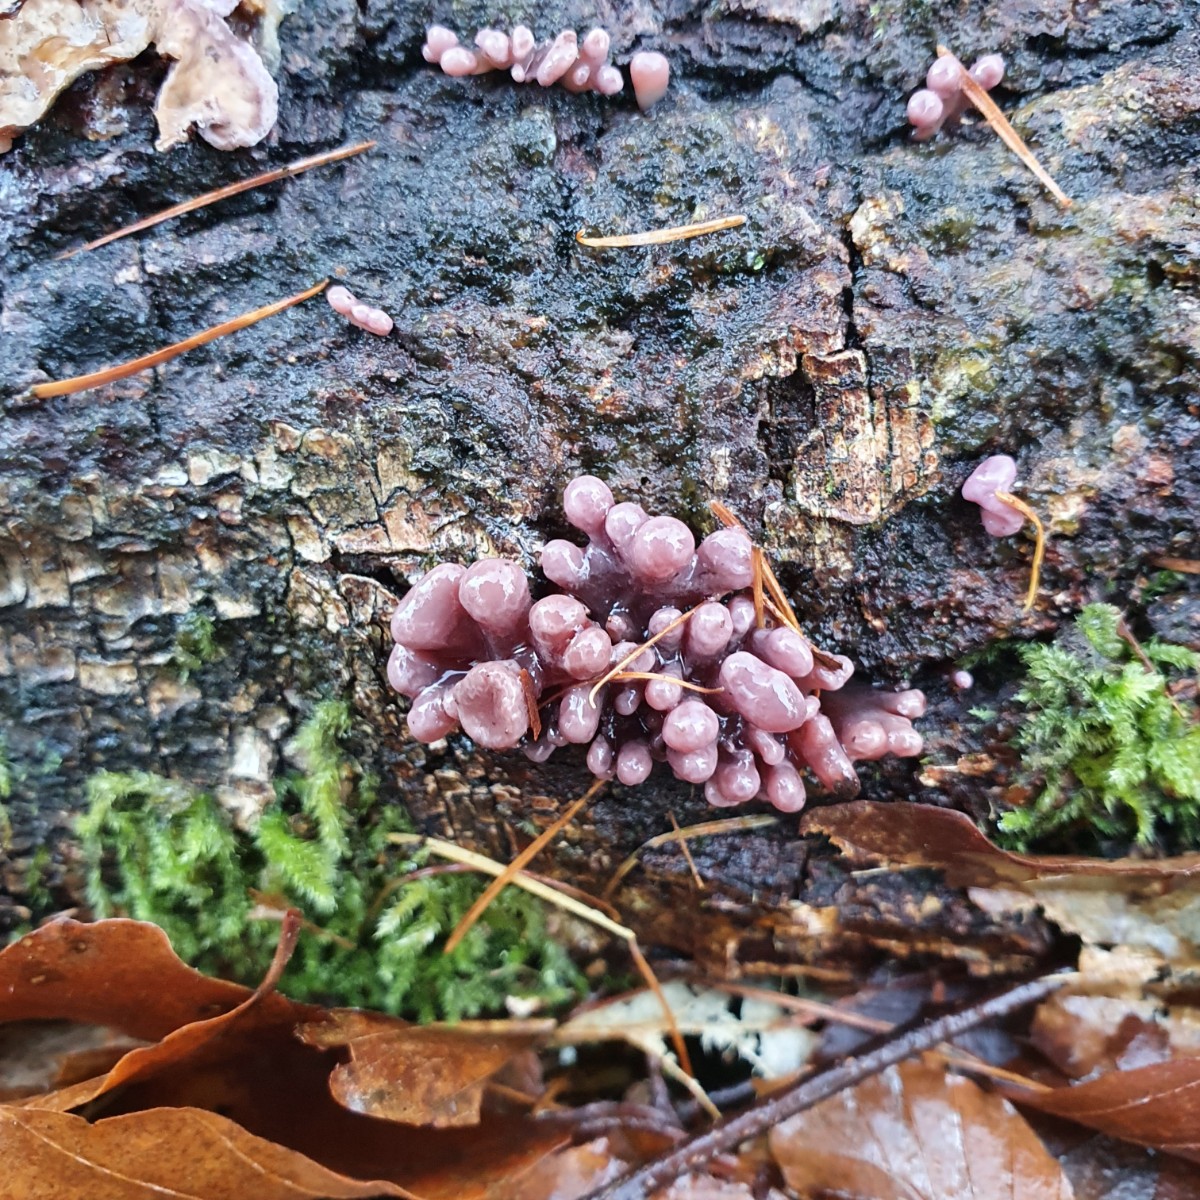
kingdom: Fungi
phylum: Ascomycota
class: Leotiomycetes
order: Helotiales
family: Gelatinodiscaceae
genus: Ascocoryne
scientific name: Ascocoryne sarcoides
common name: rødlilla sejskive
